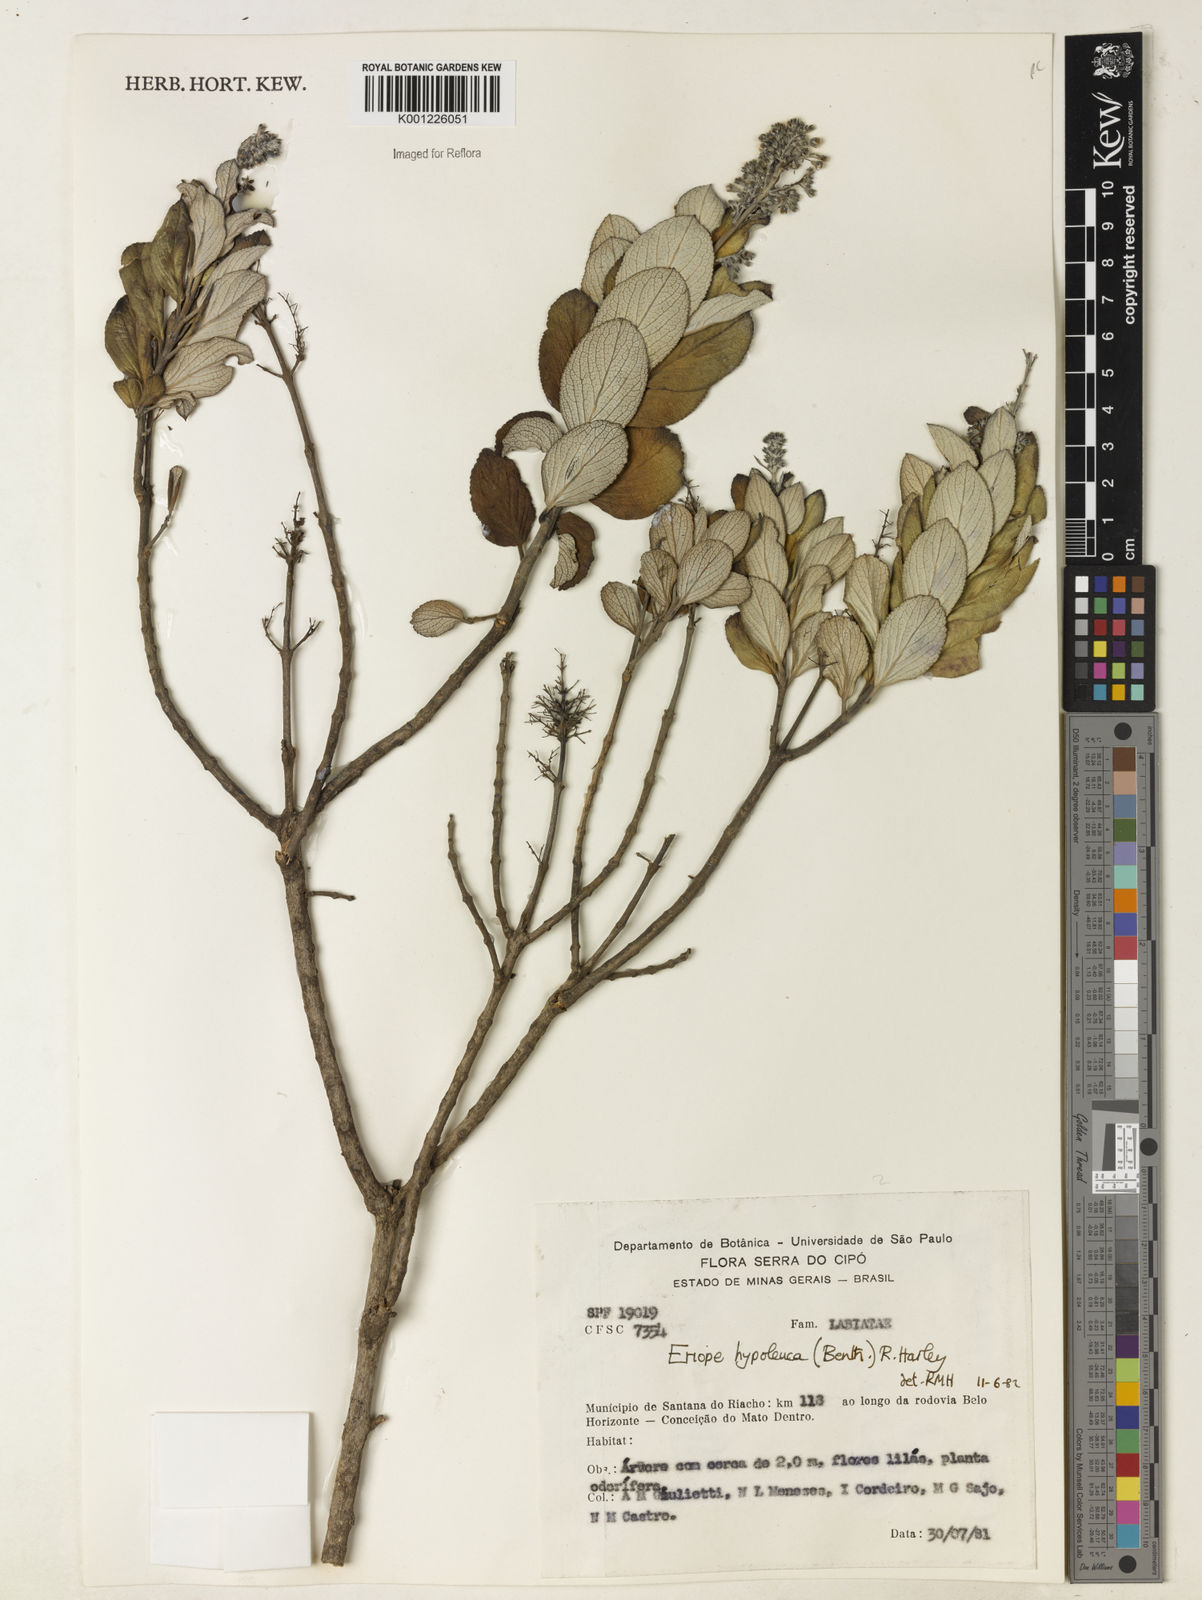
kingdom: Plantae
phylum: Tracheophyta
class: Magnoliopsida
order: Lamiales
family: Lamiaceae
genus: Eriope
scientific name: Eriope hypoleuca
